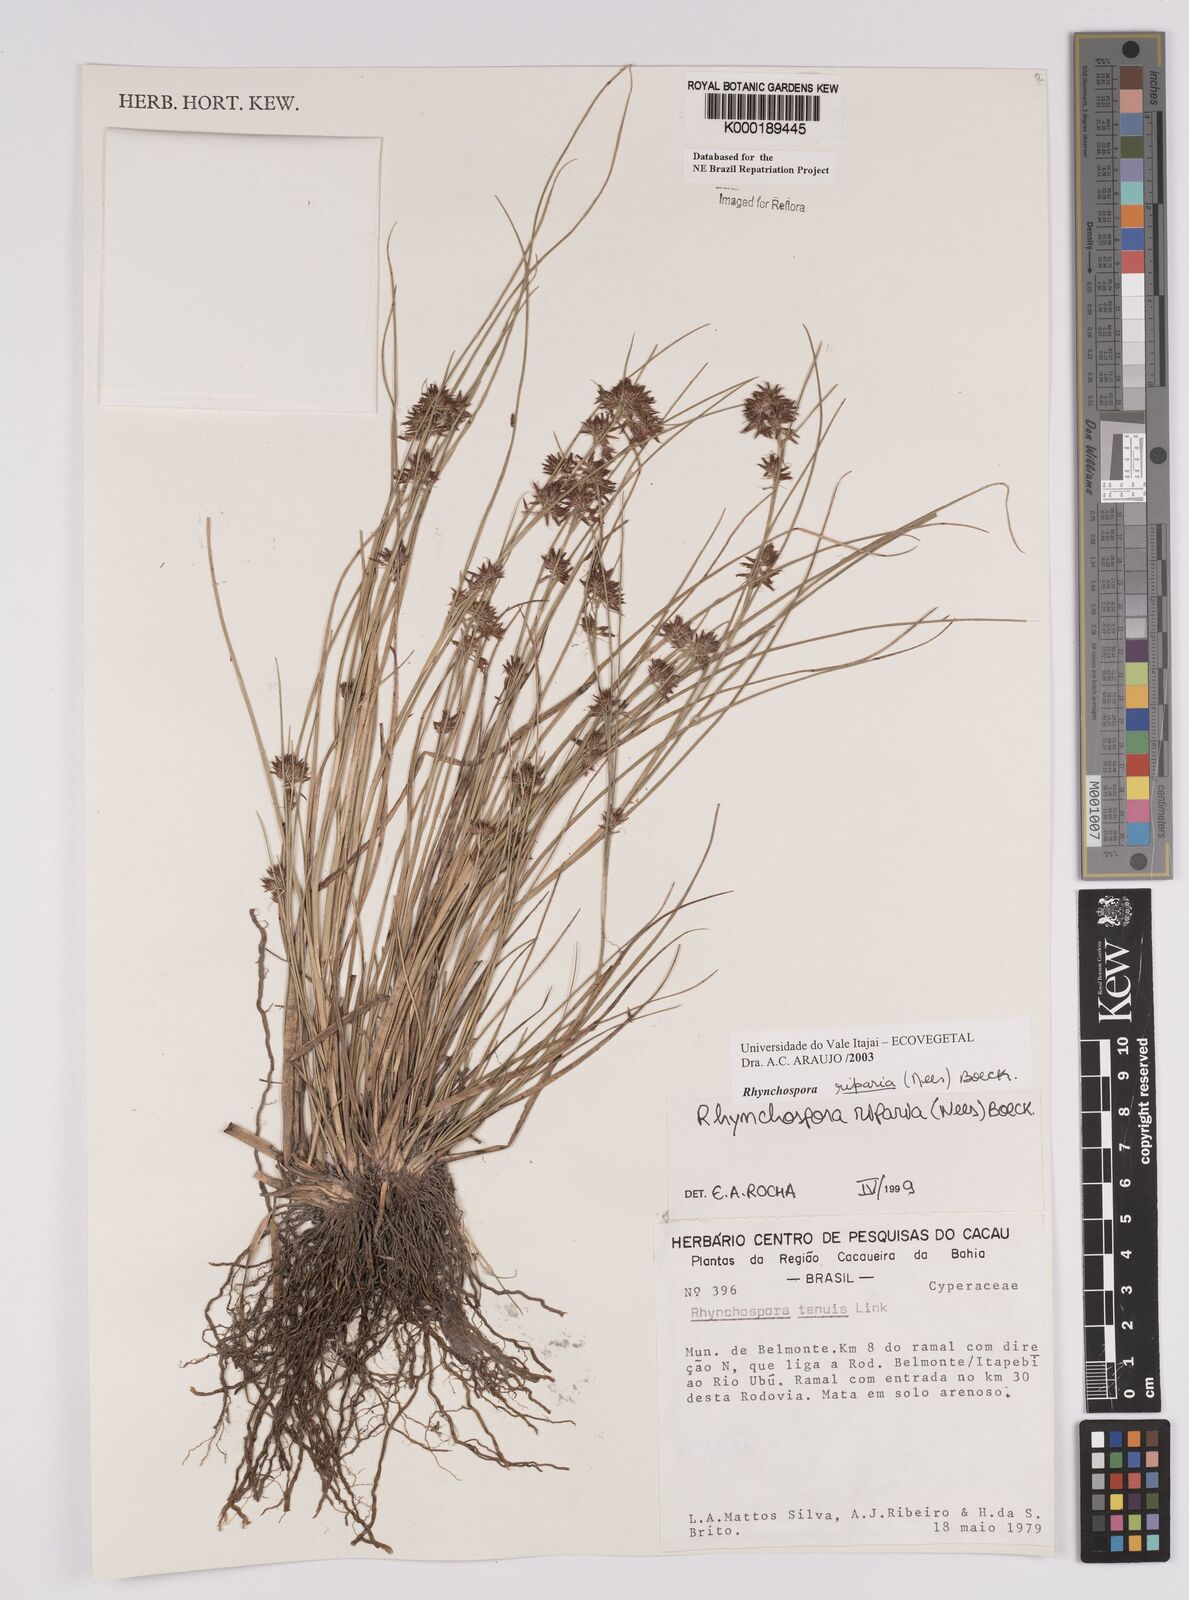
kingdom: Plantae
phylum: Tracheophyta
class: Liliopsida
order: Poales
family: Cyperaceae
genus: Rhynchospora
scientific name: Rhynchospora riparia
